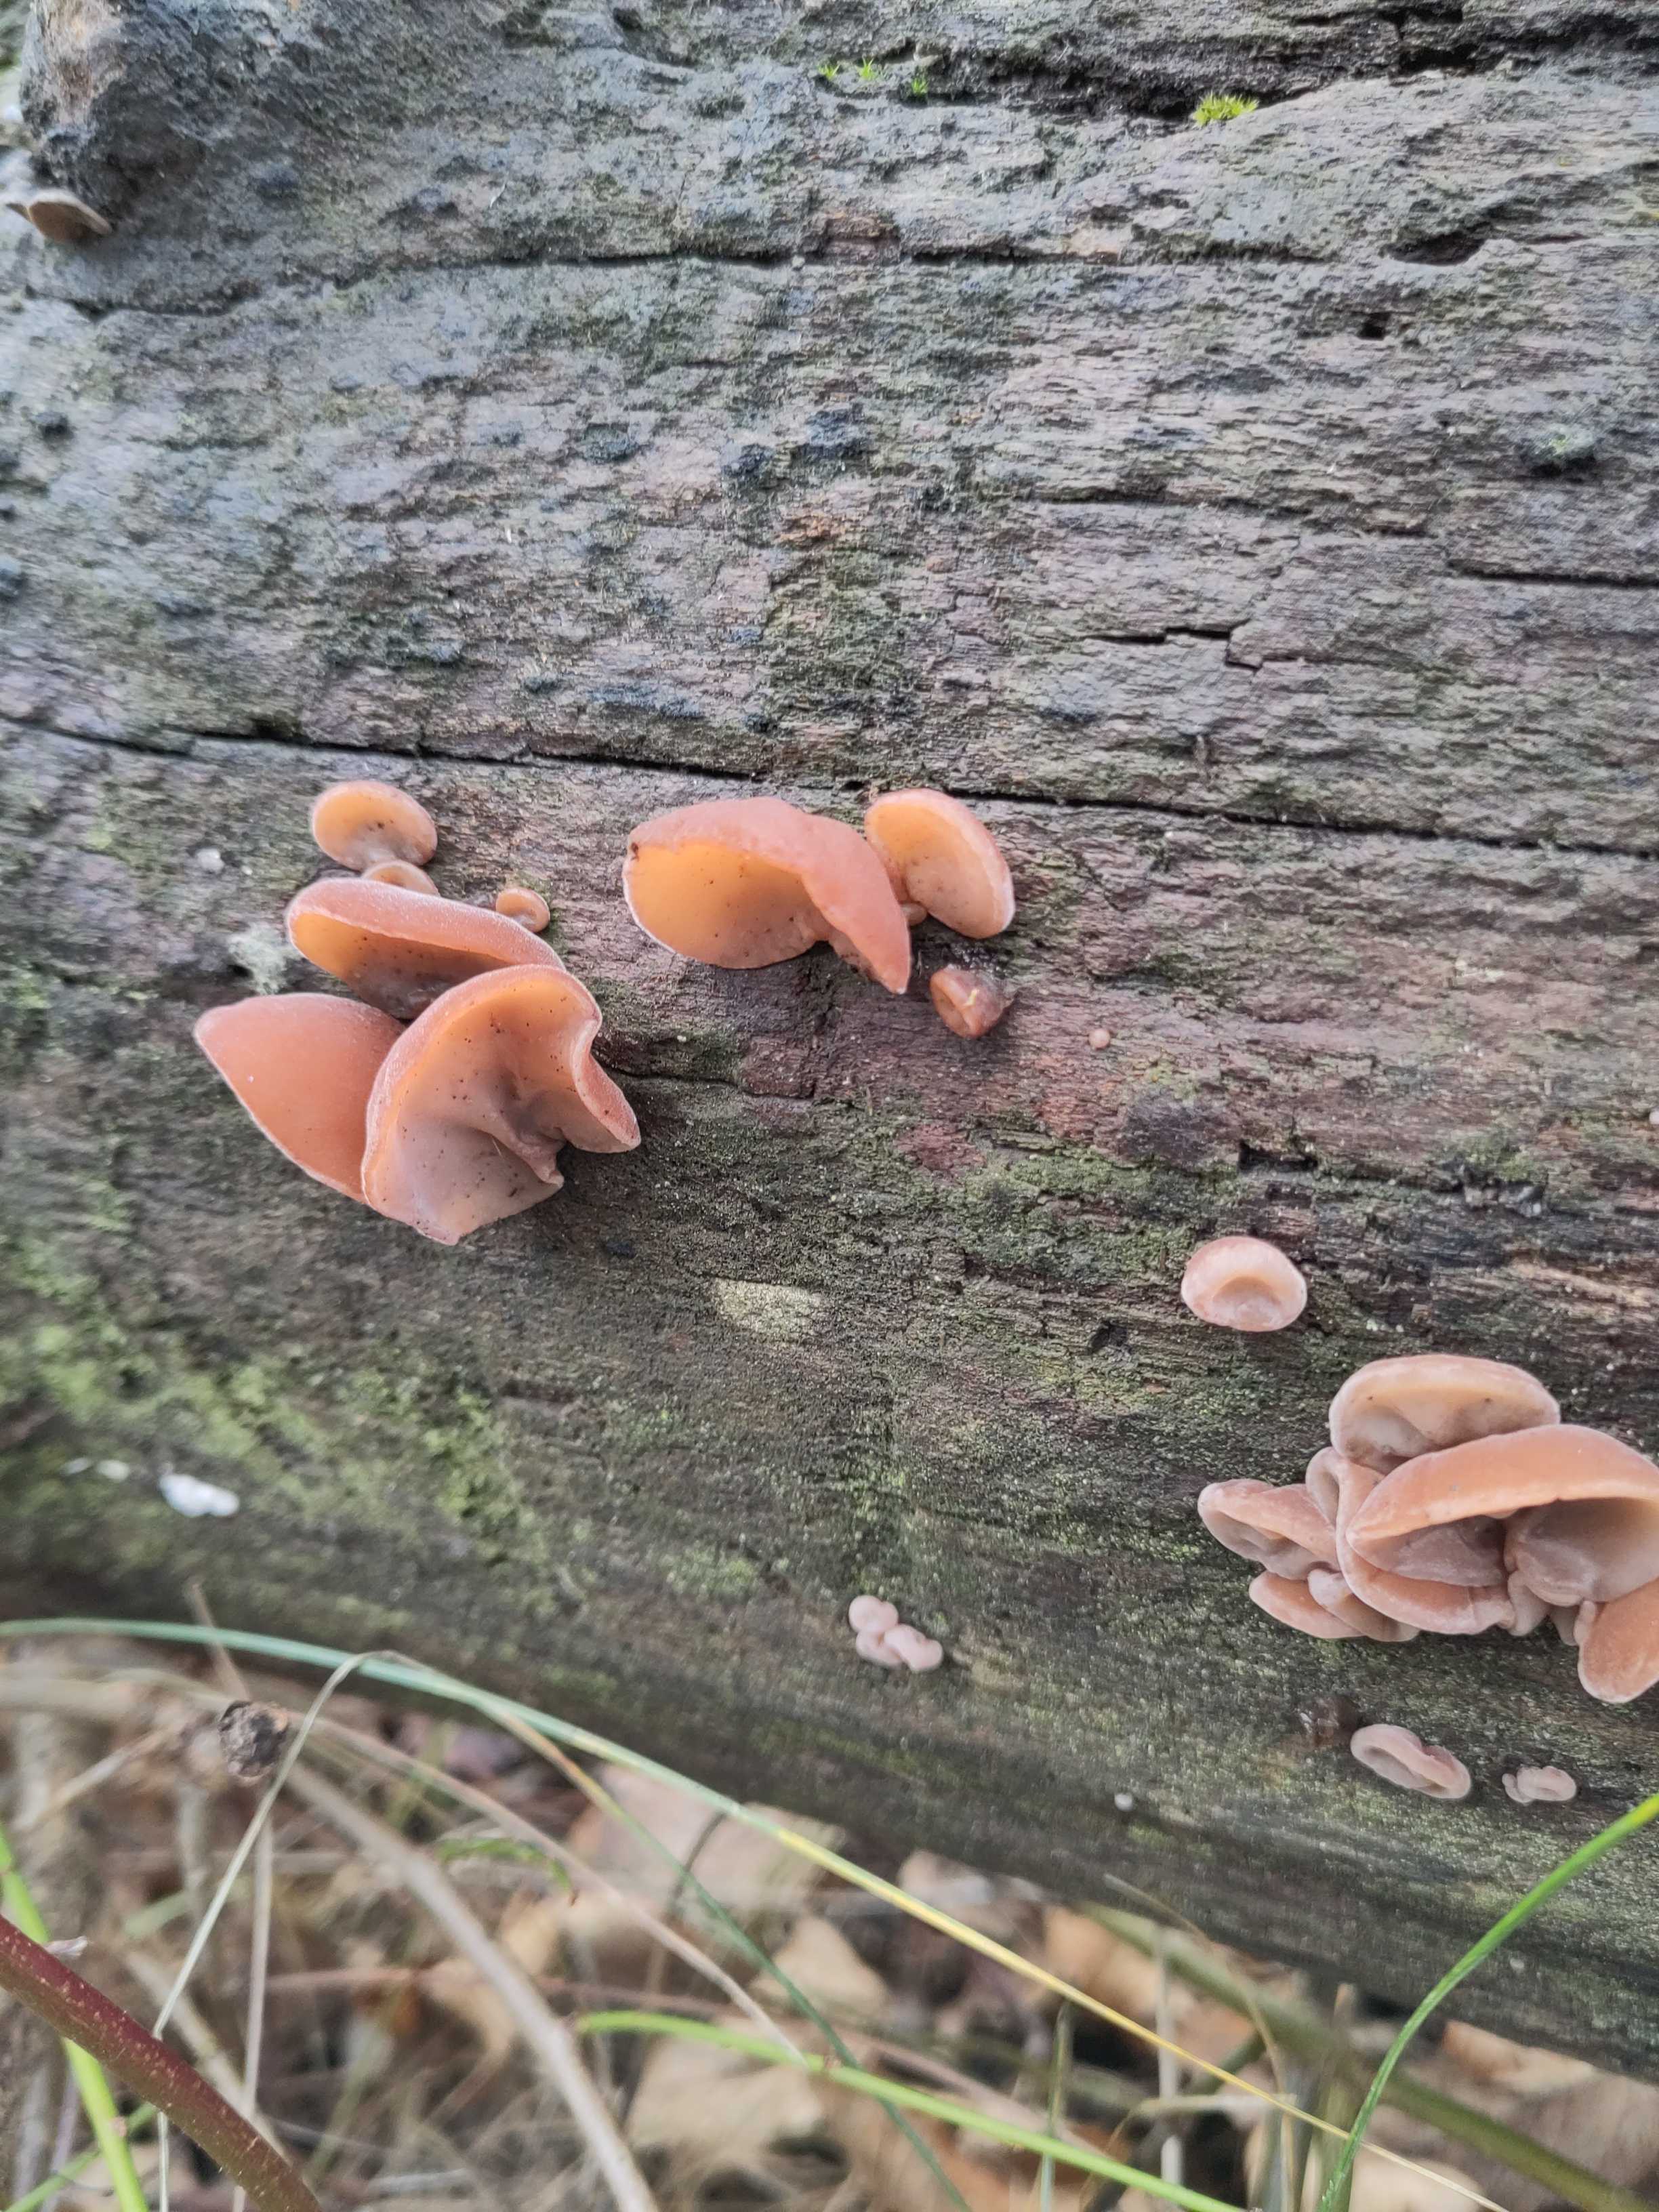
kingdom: Fungi
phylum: Basidiomycota
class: Agaricomycetes
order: Auriculariales
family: Auriculariaceae
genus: Auricularia
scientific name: Auricularia auricula-judae
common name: almindelig judasøre
